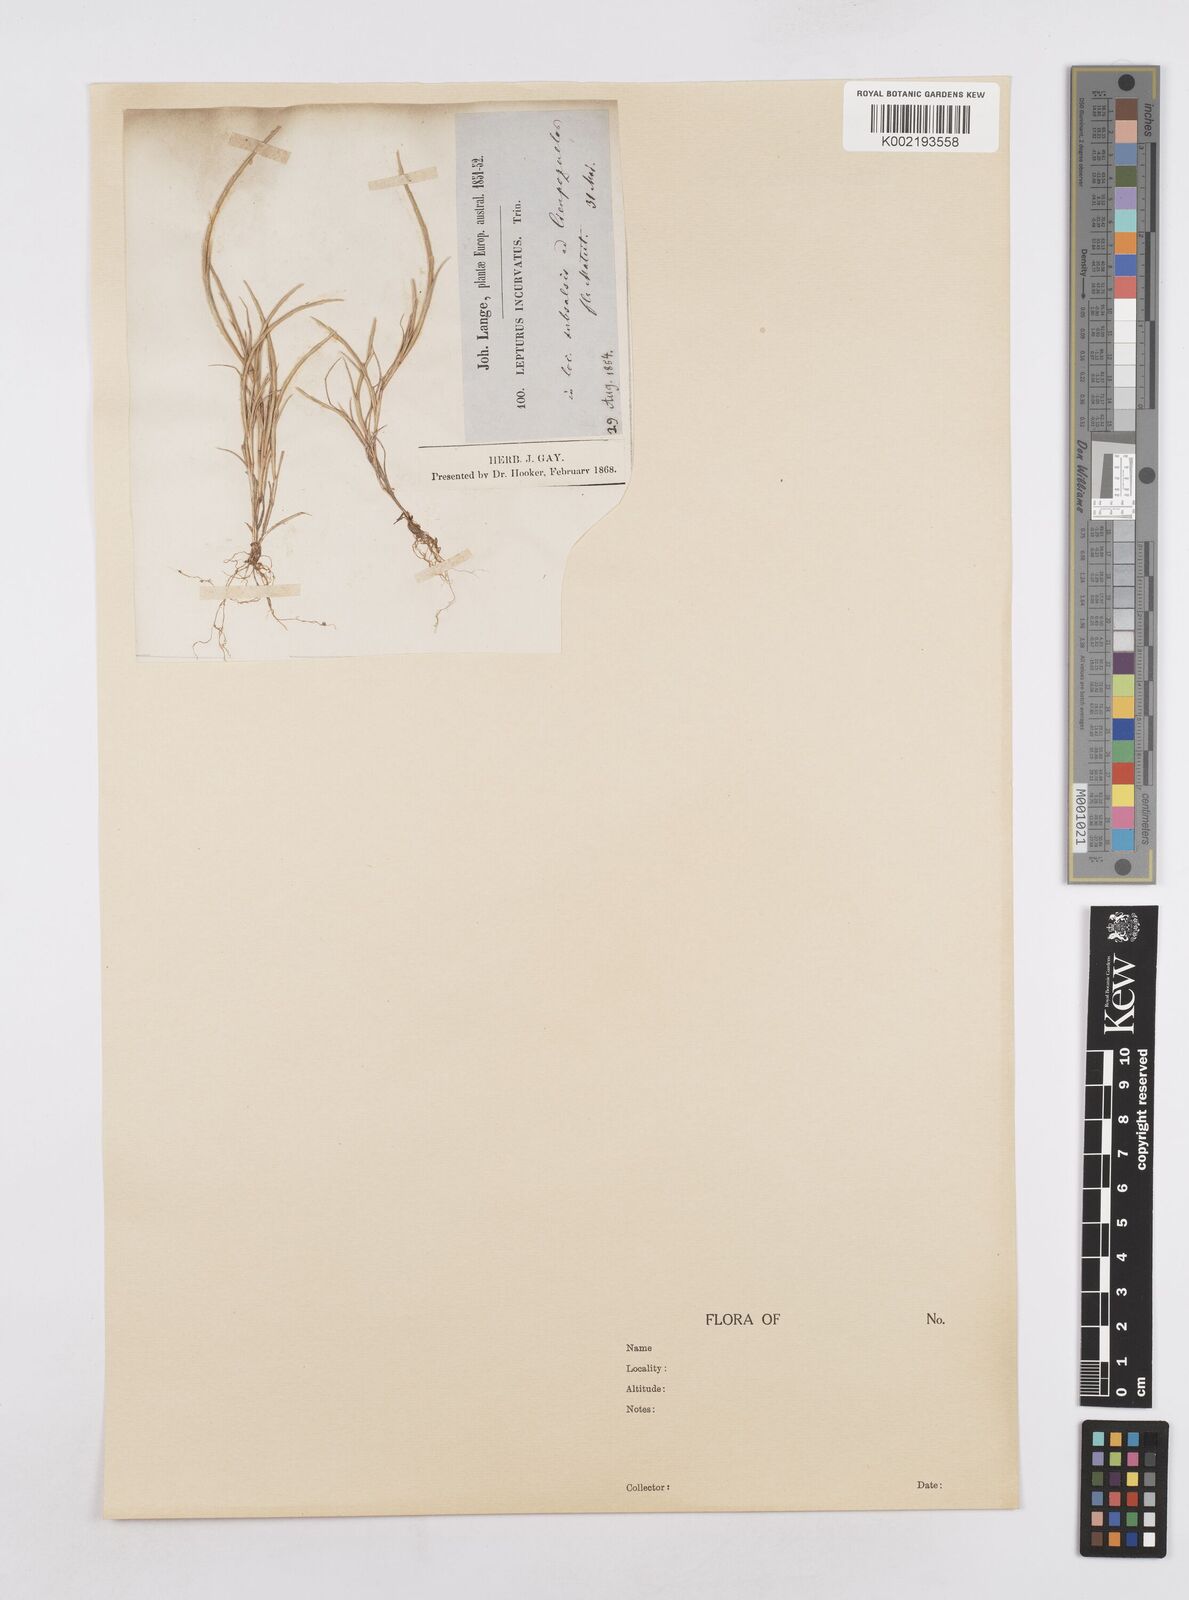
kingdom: Plantae
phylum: Tracheophyta
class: Liliopsida
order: Poales
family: Poaceae
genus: Parapholis
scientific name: Parapholis incurva
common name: Curved sicklegrass
